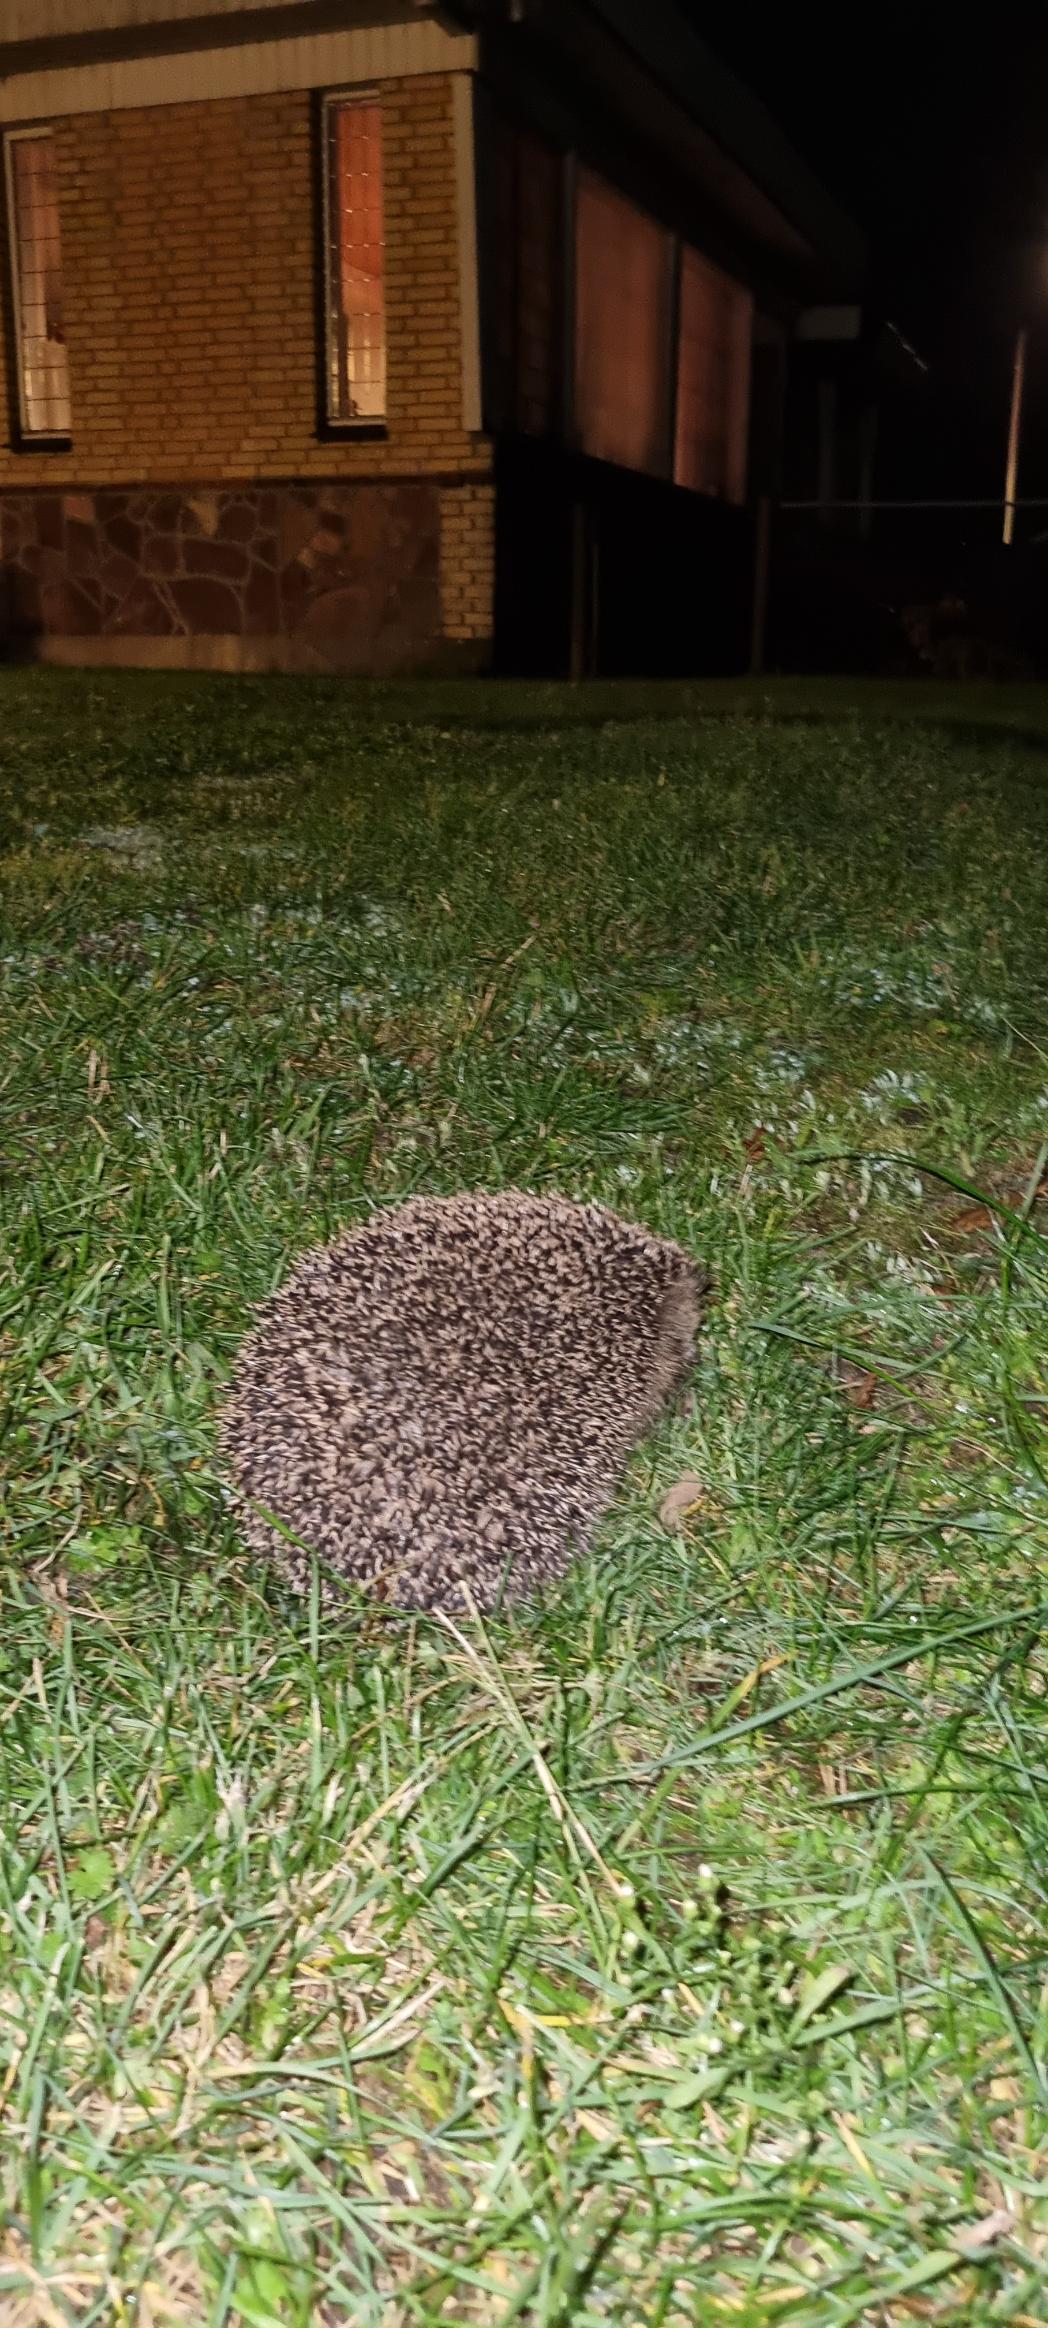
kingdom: Animalia
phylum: Chordata
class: Mammalia
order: Erinaceomorpha
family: Erinaceidae
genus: Erinaceus
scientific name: Erinaceus europaeus
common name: Pindsvin
